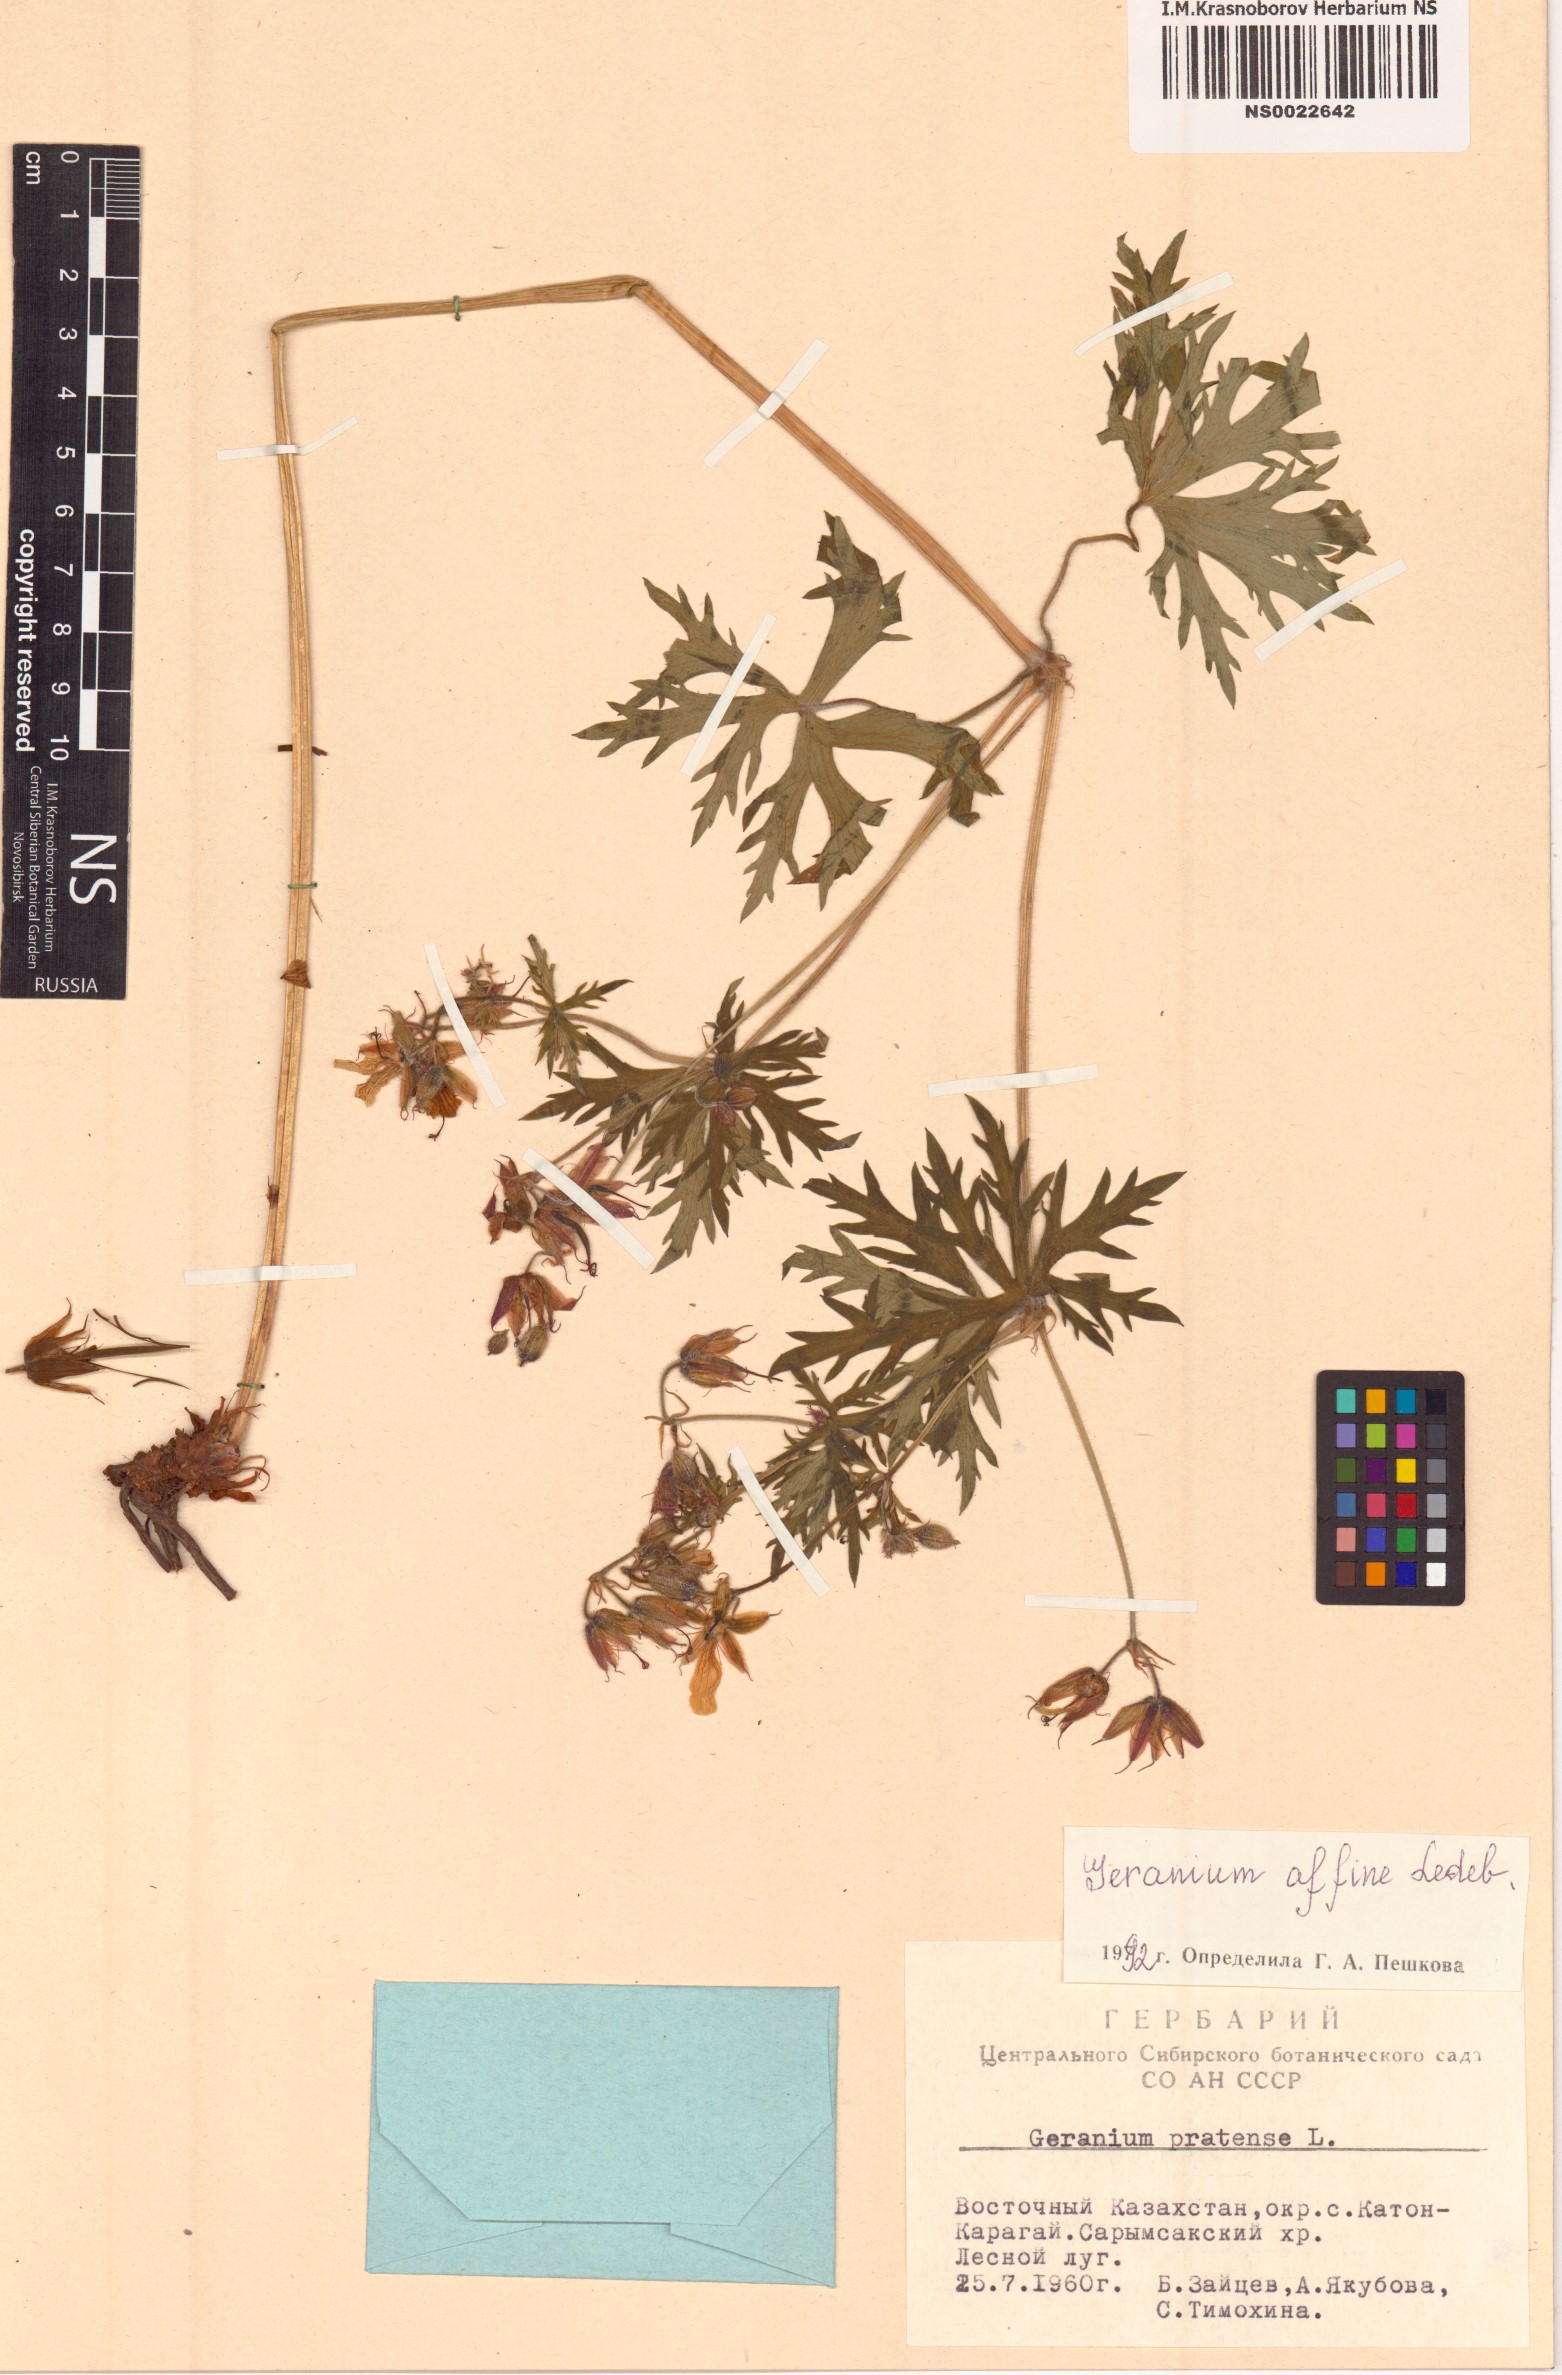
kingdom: Plantae
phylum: Tracheophyta
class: Magnoliopsida
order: Geraniales
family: Geraniaceae
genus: Geranium
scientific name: Geranium pratense
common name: Meadow crane's-bill
